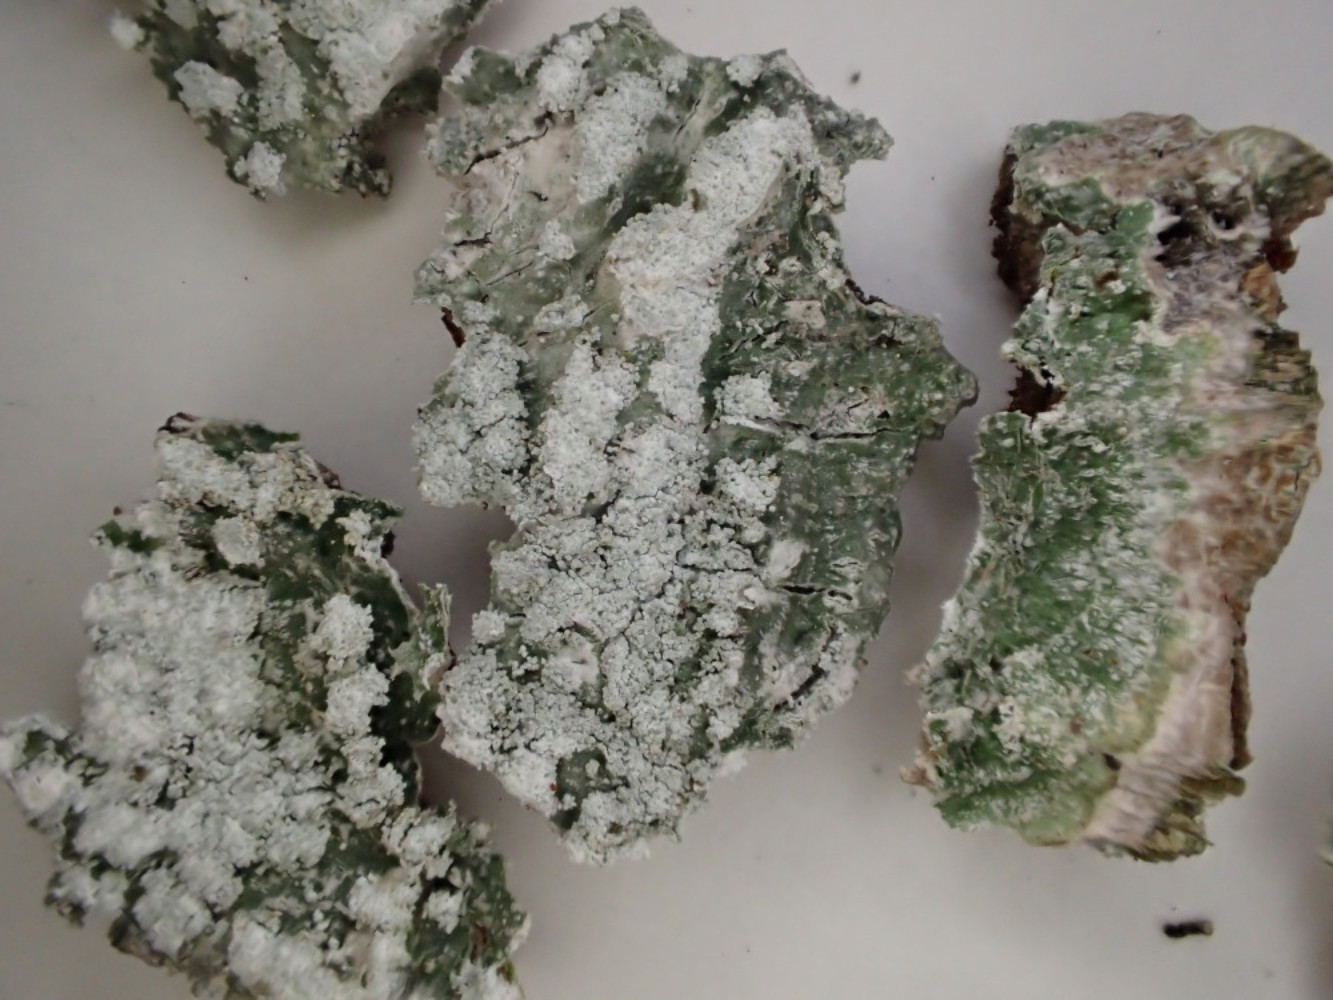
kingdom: Fungi
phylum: Ascomycota
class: Lecanoromycetes
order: Pertusariales
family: Pertusariaceae
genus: Lepra
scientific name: Lepra amara
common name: bitter prikvortelav
